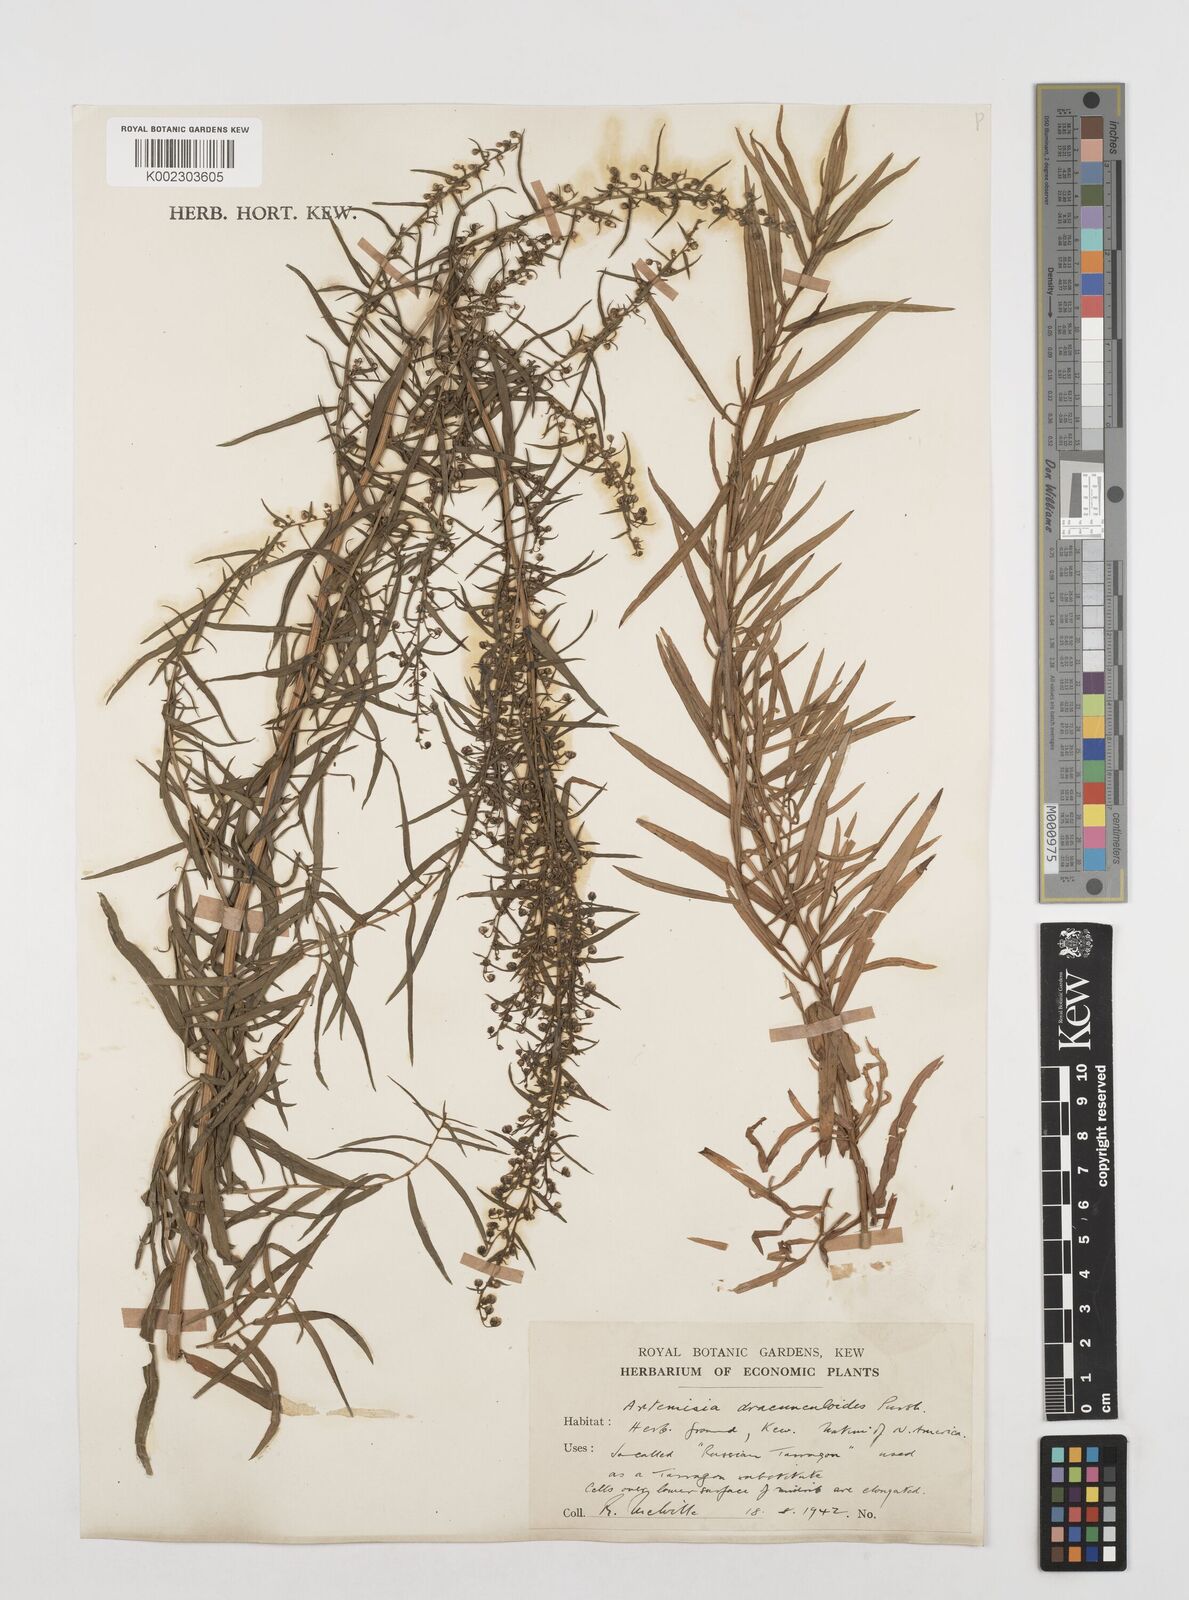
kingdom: Plantae
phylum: Tracheophyta
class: Magnoliopsida
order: Asterales
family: Asteraceae
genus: Artemisia
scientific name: Artemisia dracunculus
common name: Tarragon
